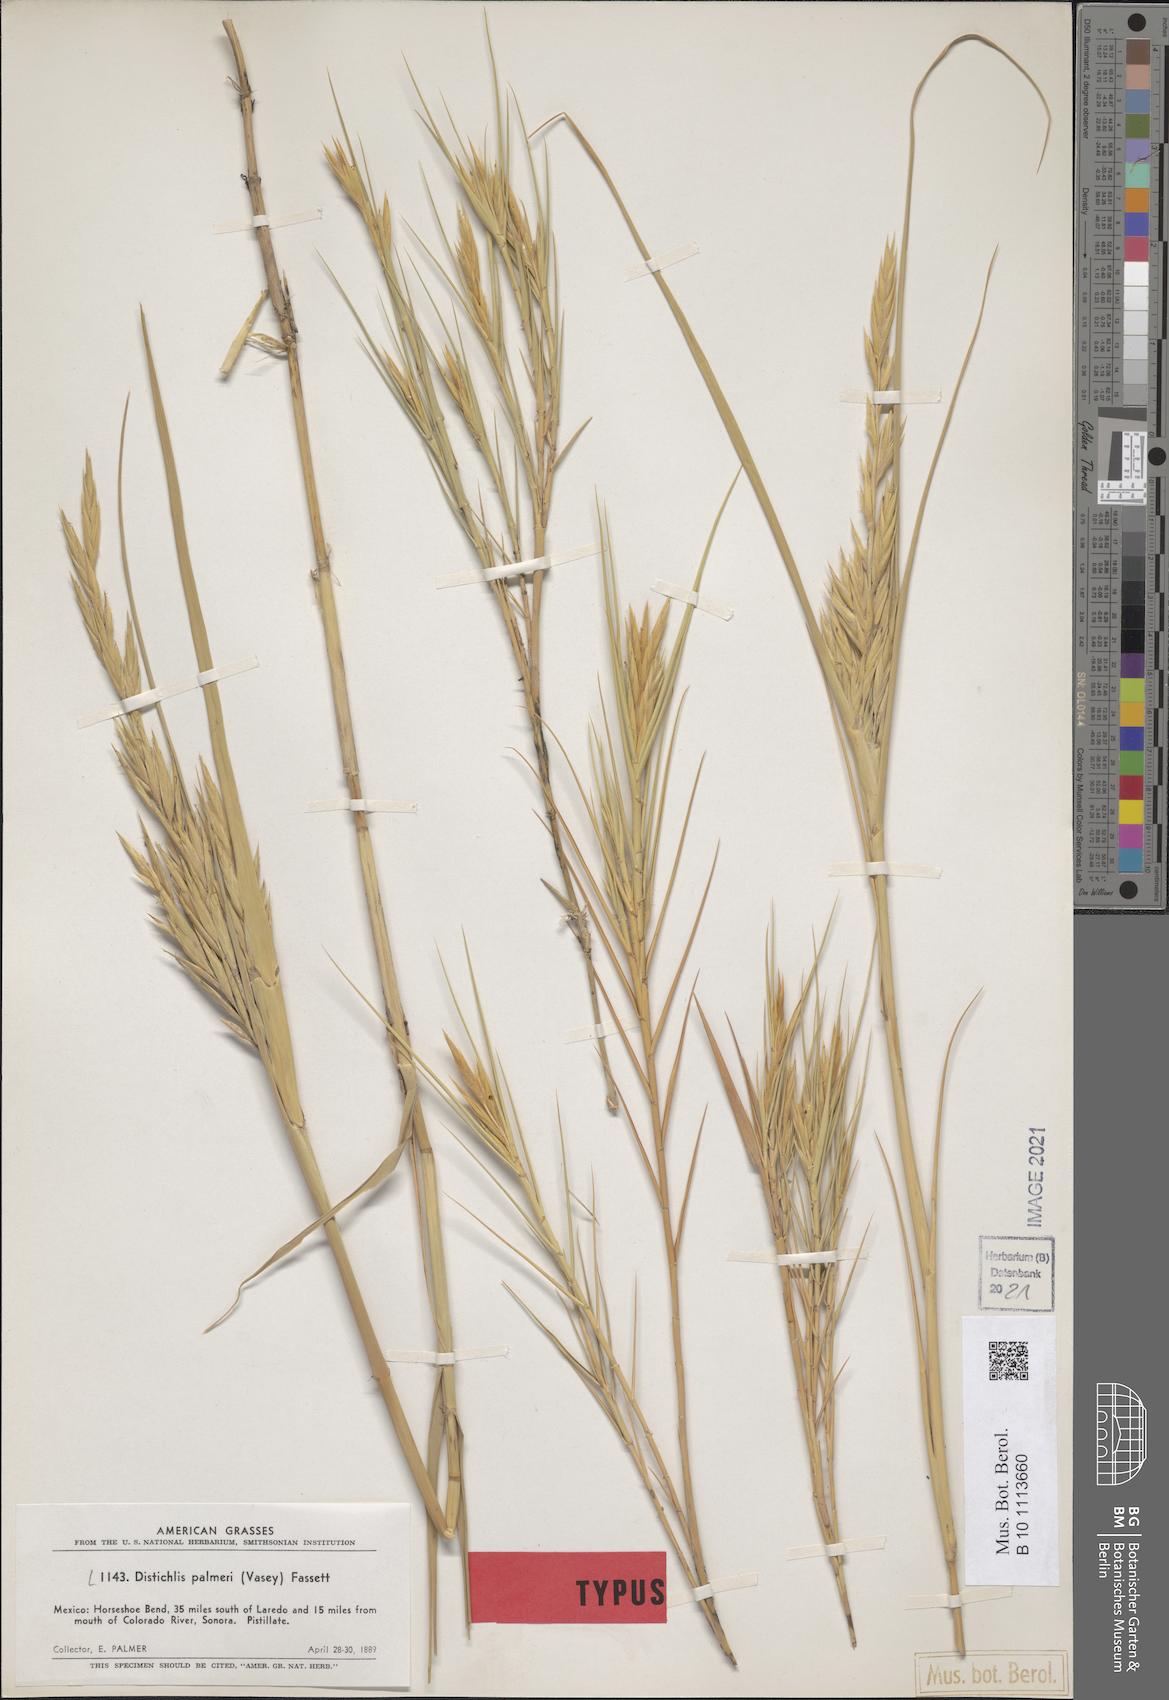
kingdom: Plantae
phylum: Tracheophyta
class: Liliopsida
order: Poales
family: Poaceae
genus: Distichlis
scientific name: Distichlis palmeri
